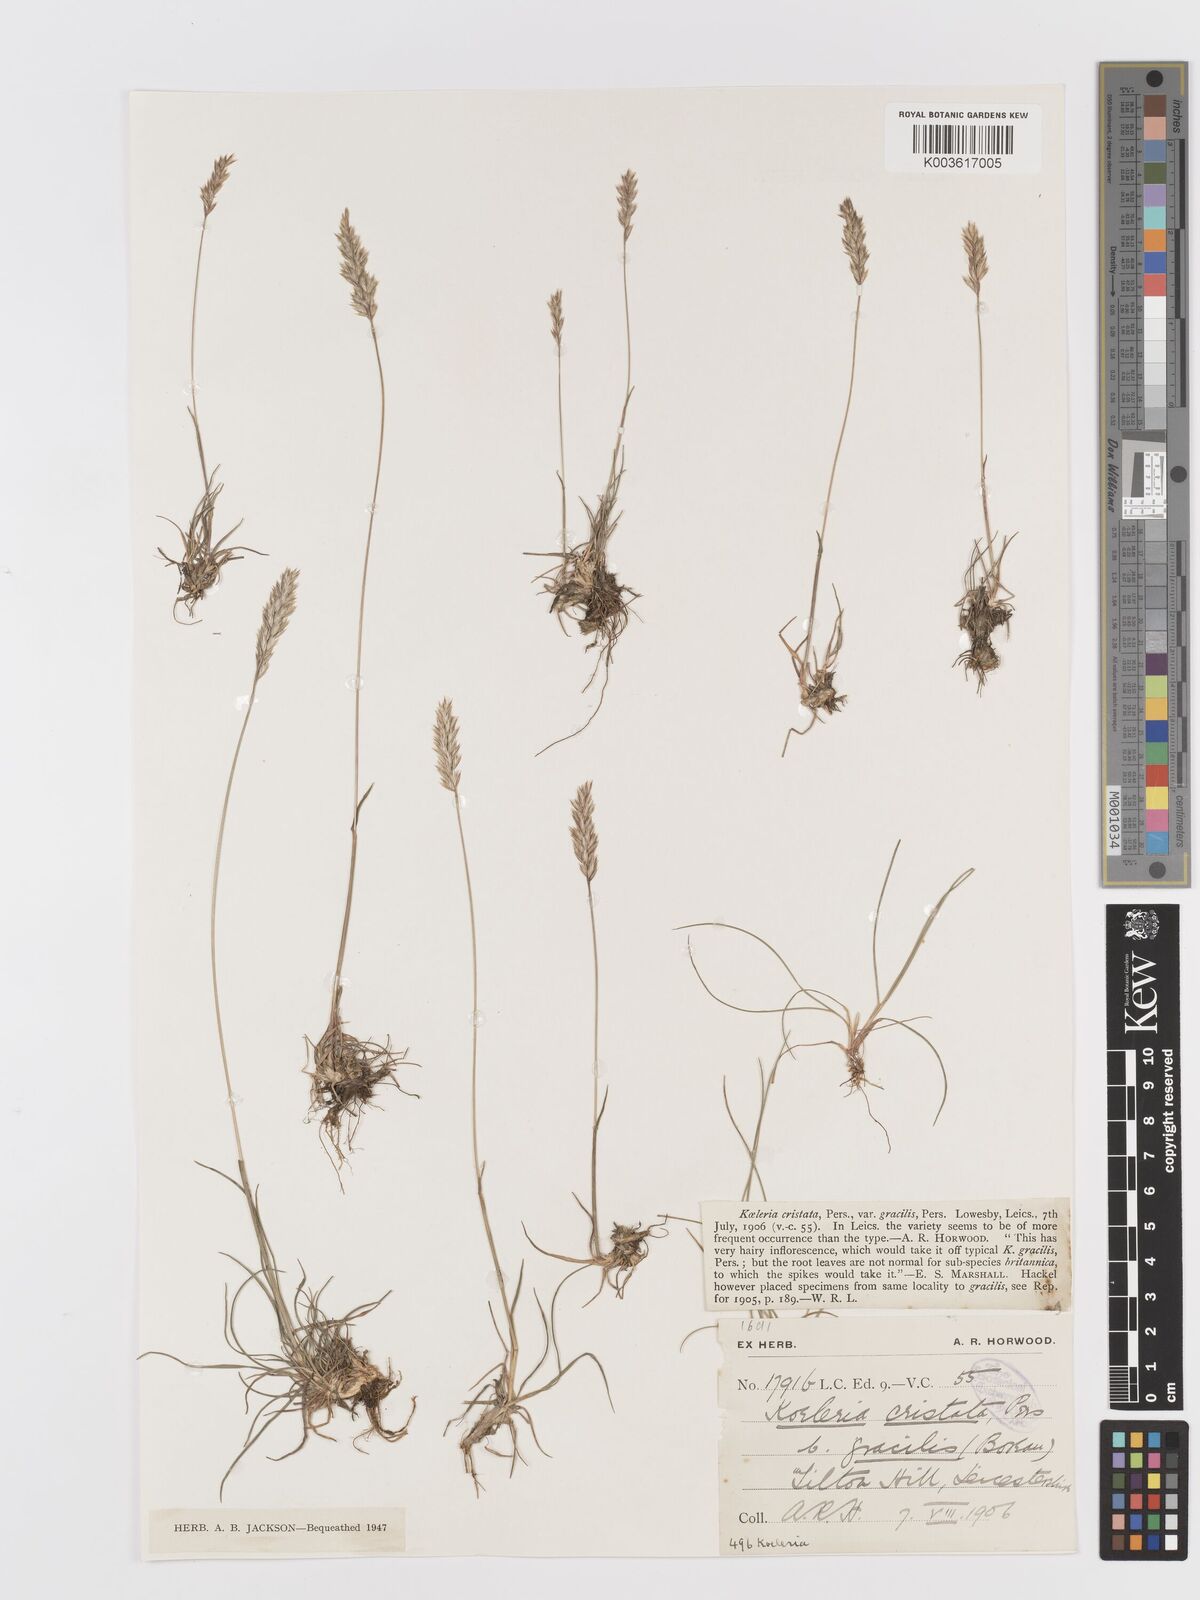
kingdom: Plantae
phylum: Tracheophyta
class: Liliopsida
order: Poales
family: Poaceae
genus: Koeleria
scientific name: Koeleria macrantha
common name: Crested hair-grass
